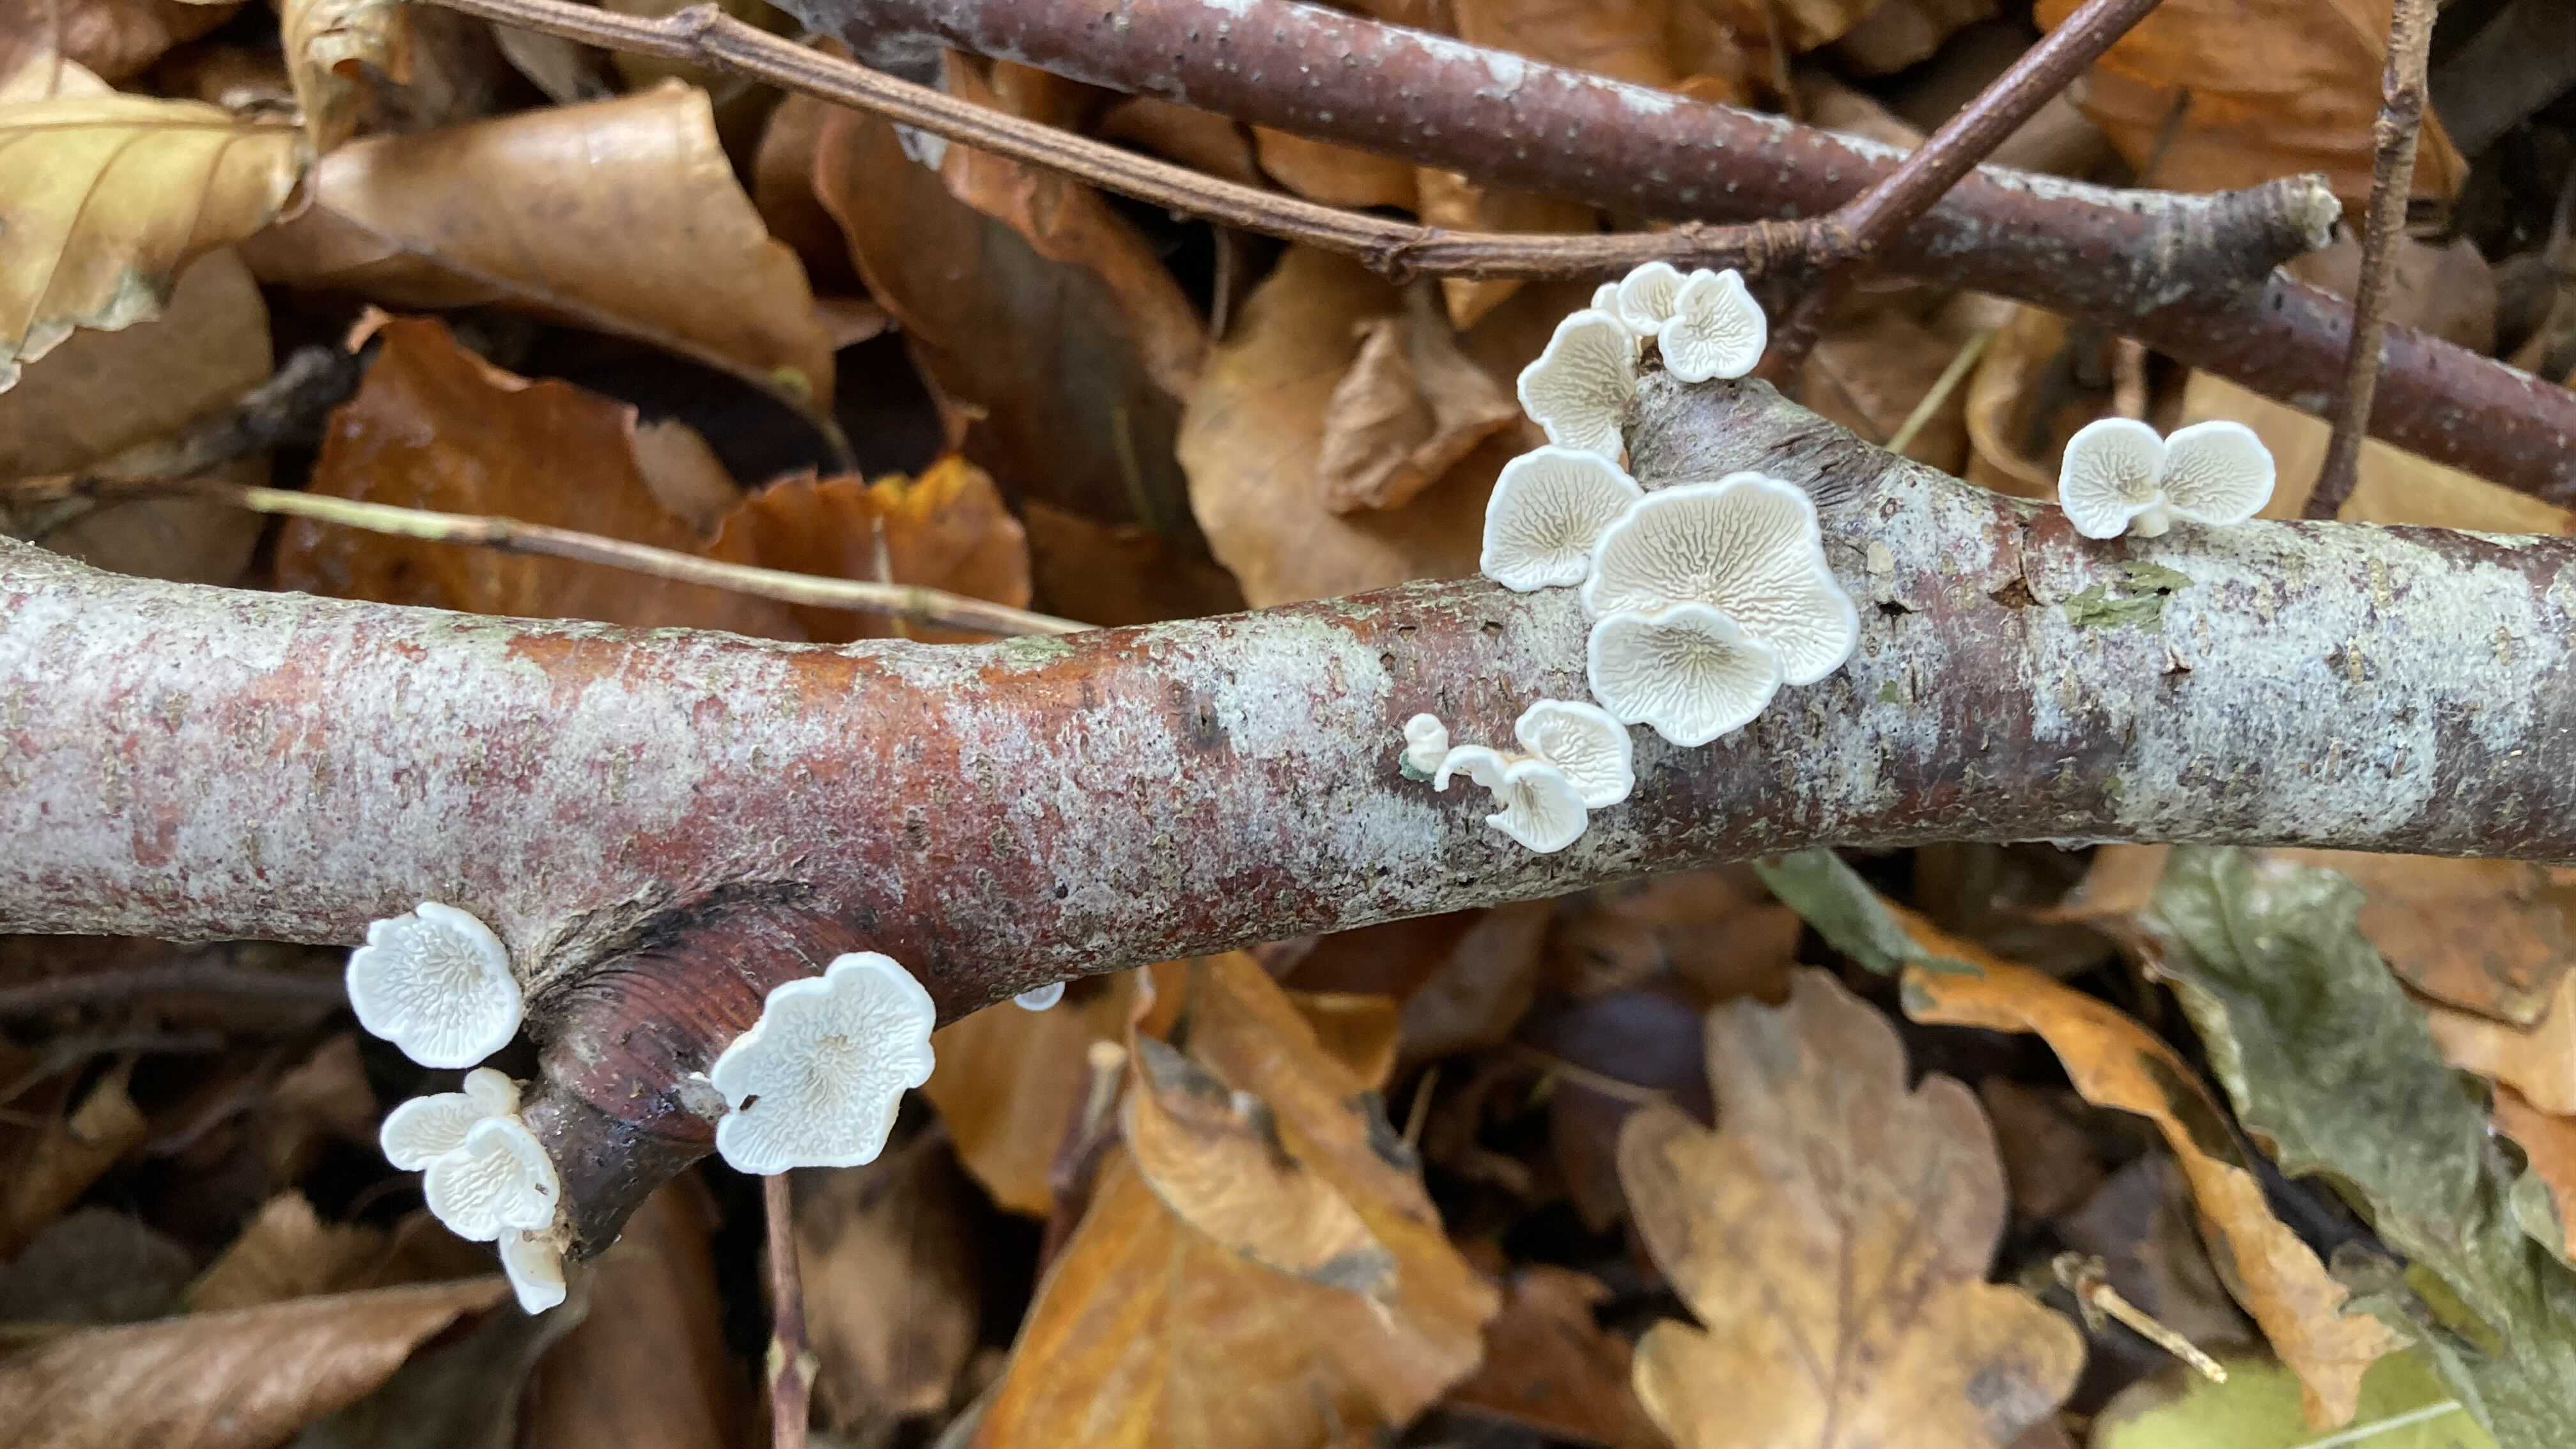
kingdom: Fungi
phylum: Basidiomycota
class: Agaricomycetes
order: Amylocorticiales
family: Amylocorticiaceae
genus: Plicaturopsis
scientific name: Plicaturopsis crispa
